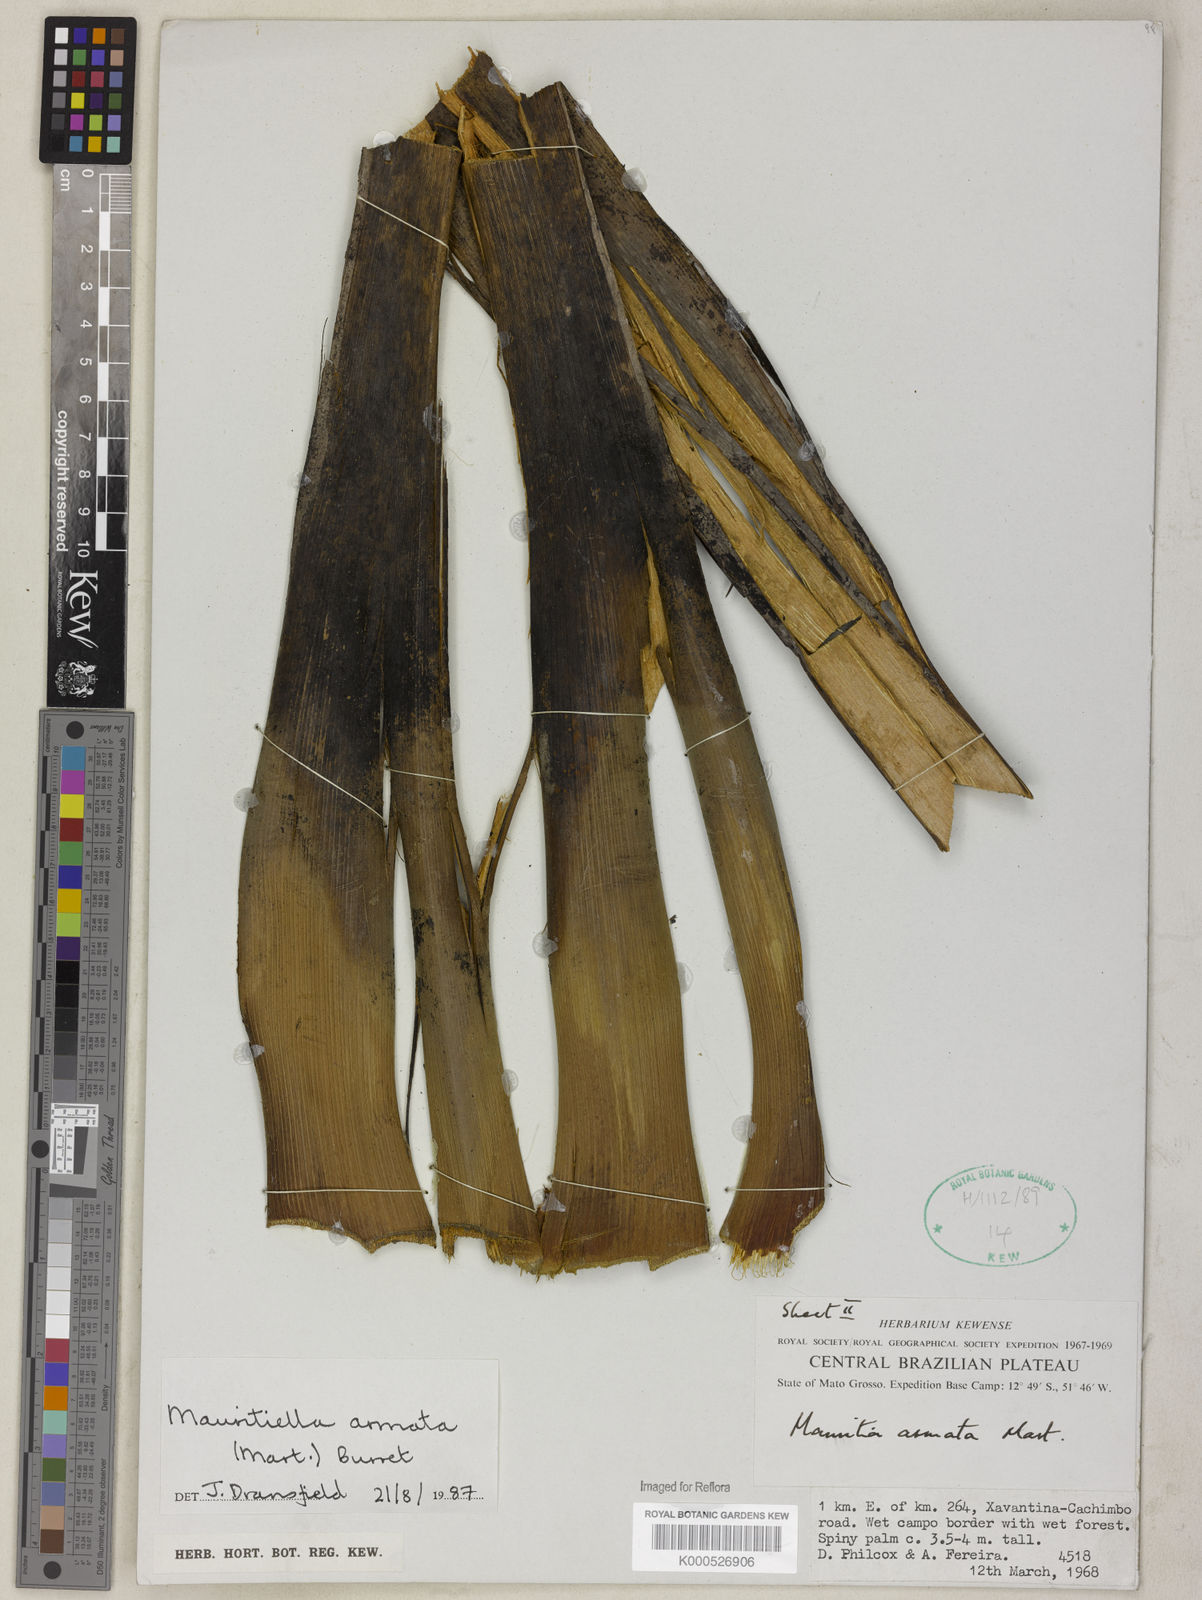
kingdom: Plantae
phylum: Tracheophyta
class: Liliopsida
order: Arecales
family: Arecaceae
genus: Mauritiella
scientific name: Mauritiella armata
